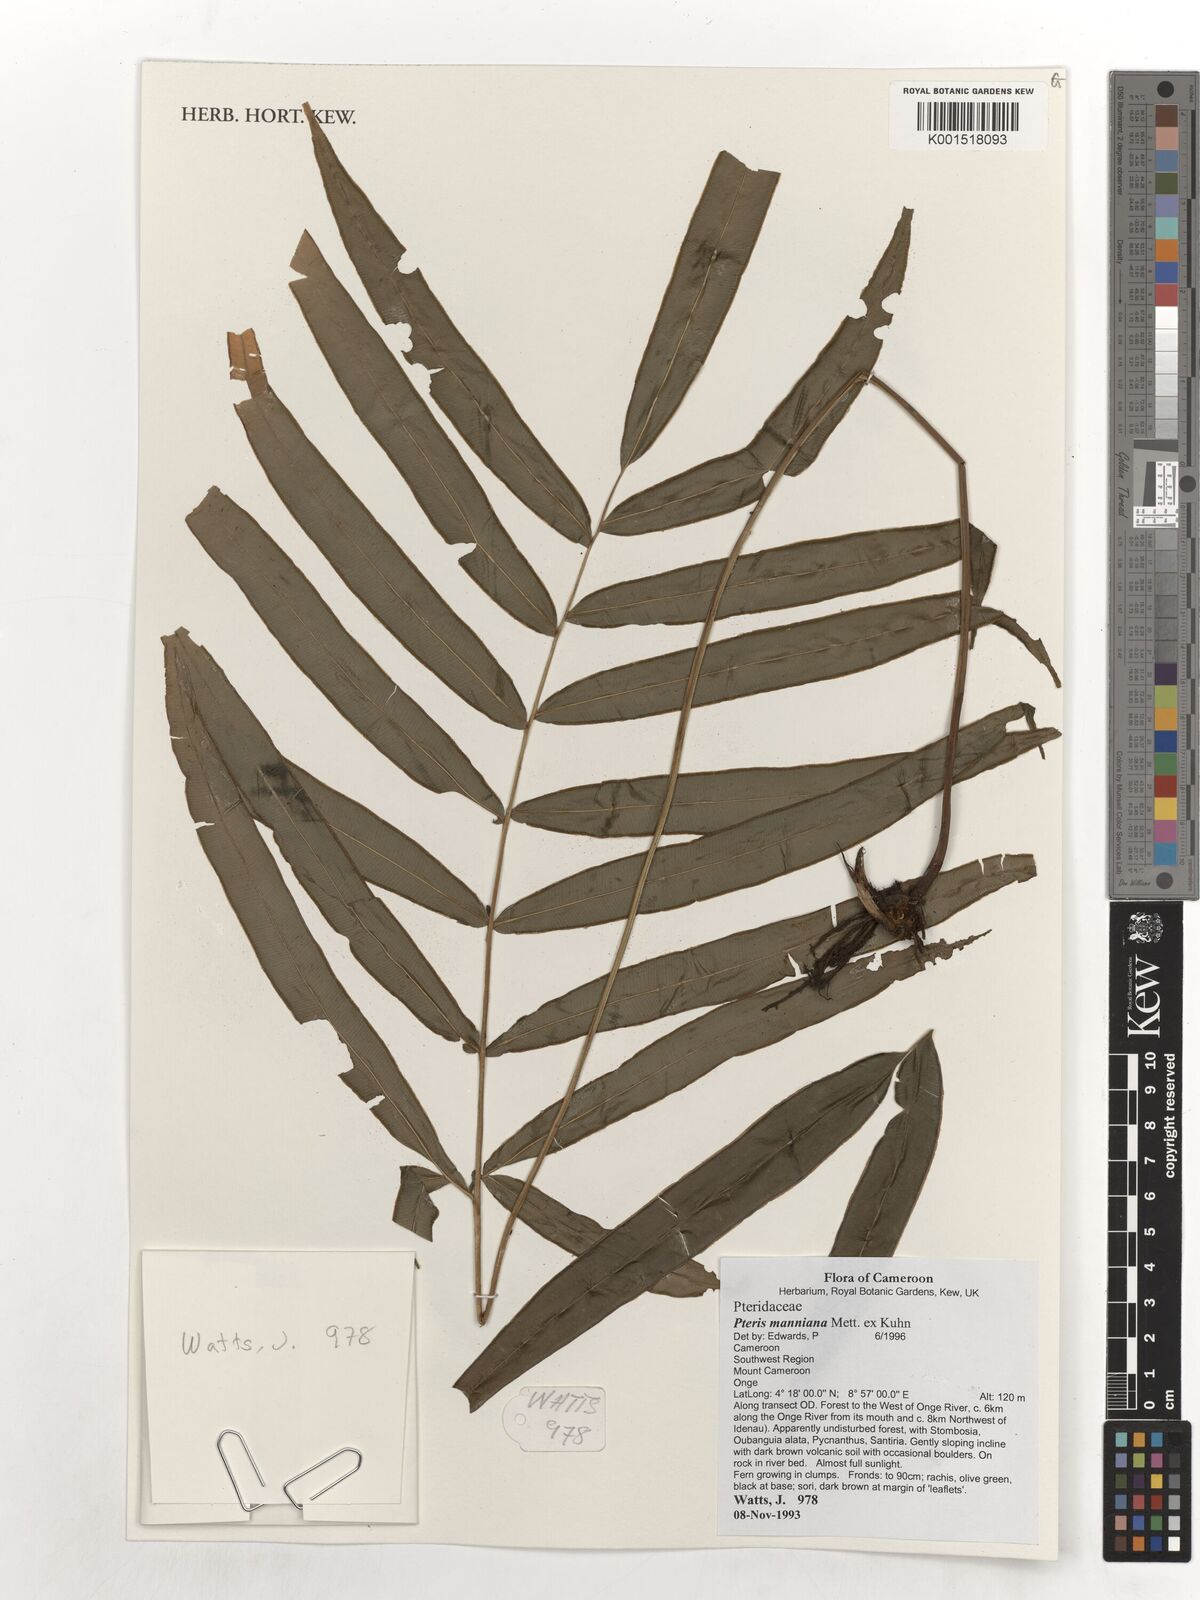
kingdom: Plantae
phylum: Tracheophyta
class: Polypodiopsida
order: Polypodiales
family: Pteridaceae
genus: Pteris
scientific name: Pteris camerooniana
